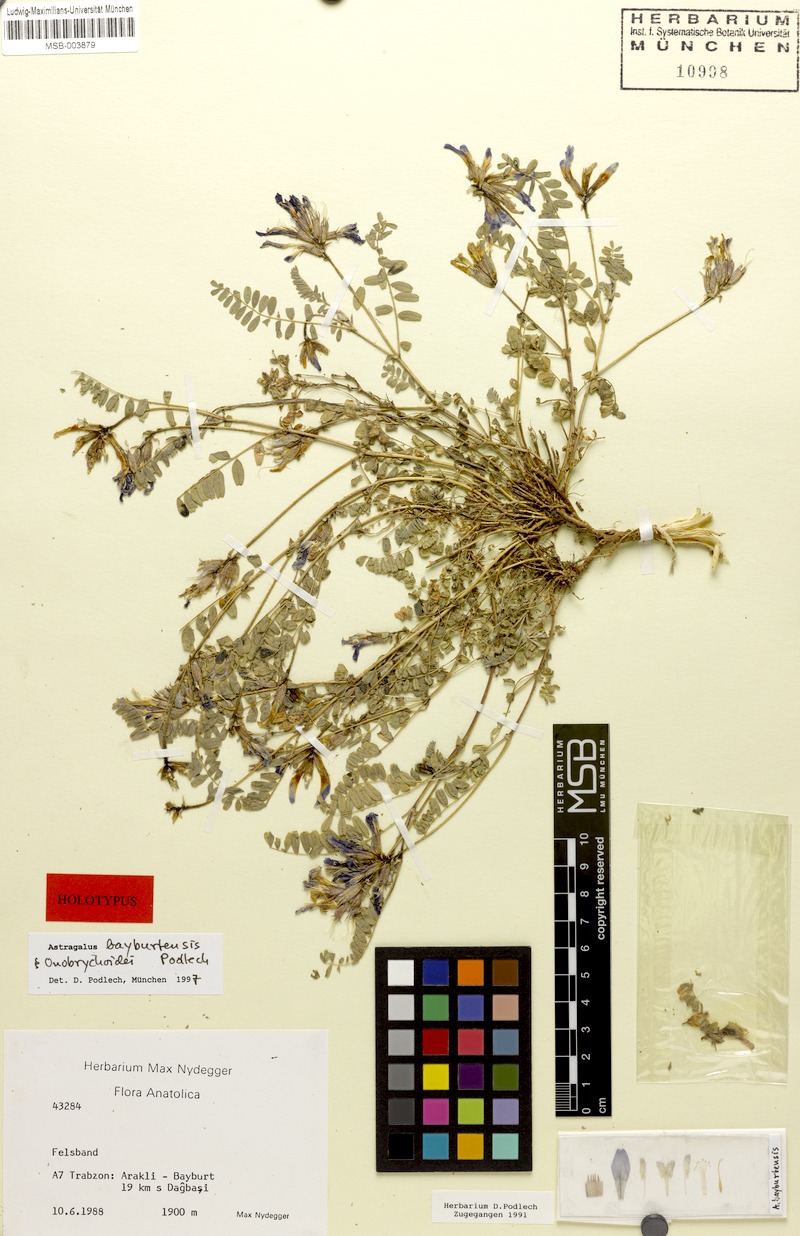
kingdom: Plantae
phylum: Tracheophyta
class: Magnoliopsida
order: Fabales
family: Fabaceae
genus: Astragalus
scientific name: Astragalus humifusus
